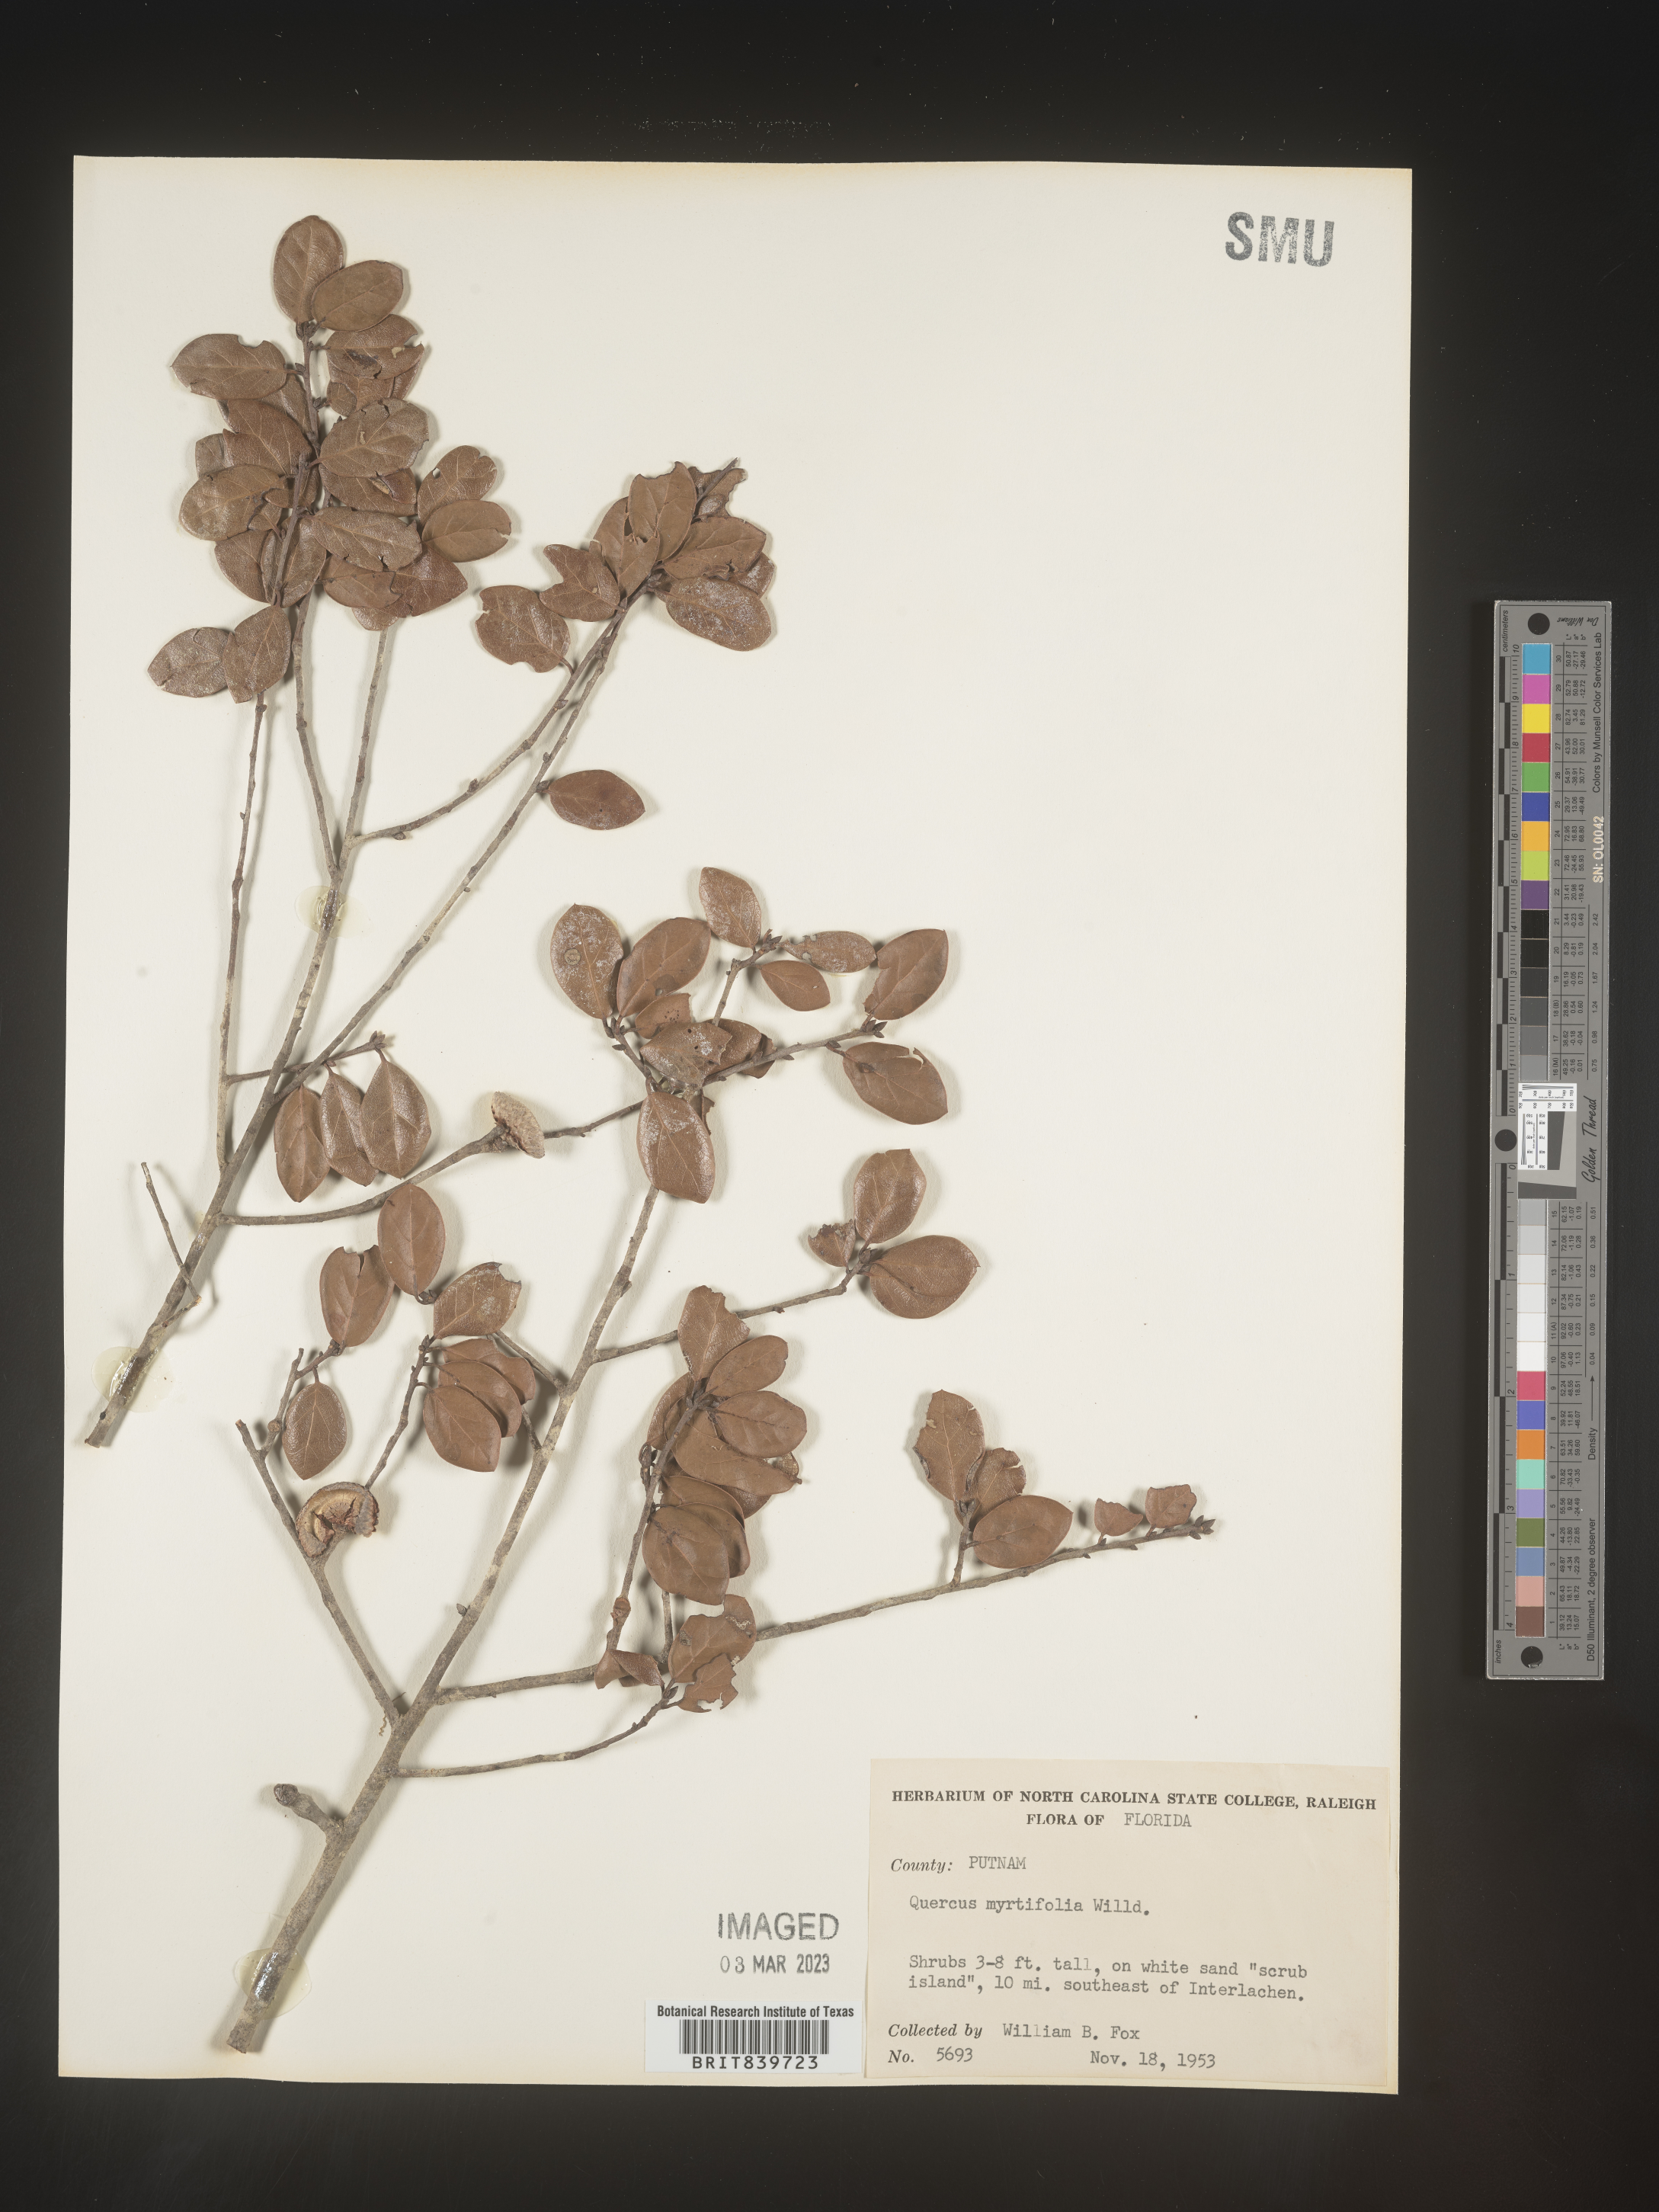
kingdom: Plantae
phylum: Tracheophyta
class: Magnoliopsida
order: Fagales
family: Fagaceae
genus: Quercus
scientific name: Quercus
